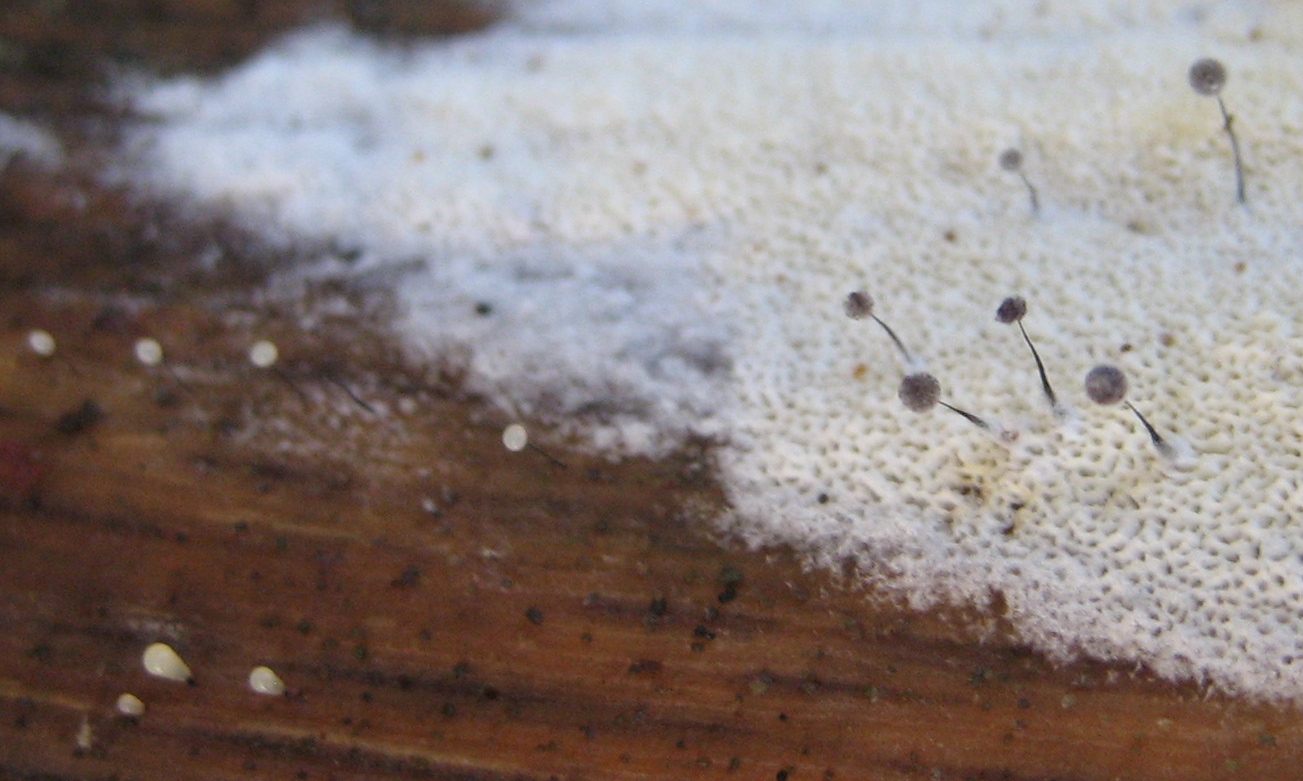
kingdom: Protozoa
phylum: Mycetozoa
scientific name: Mycetozoa
